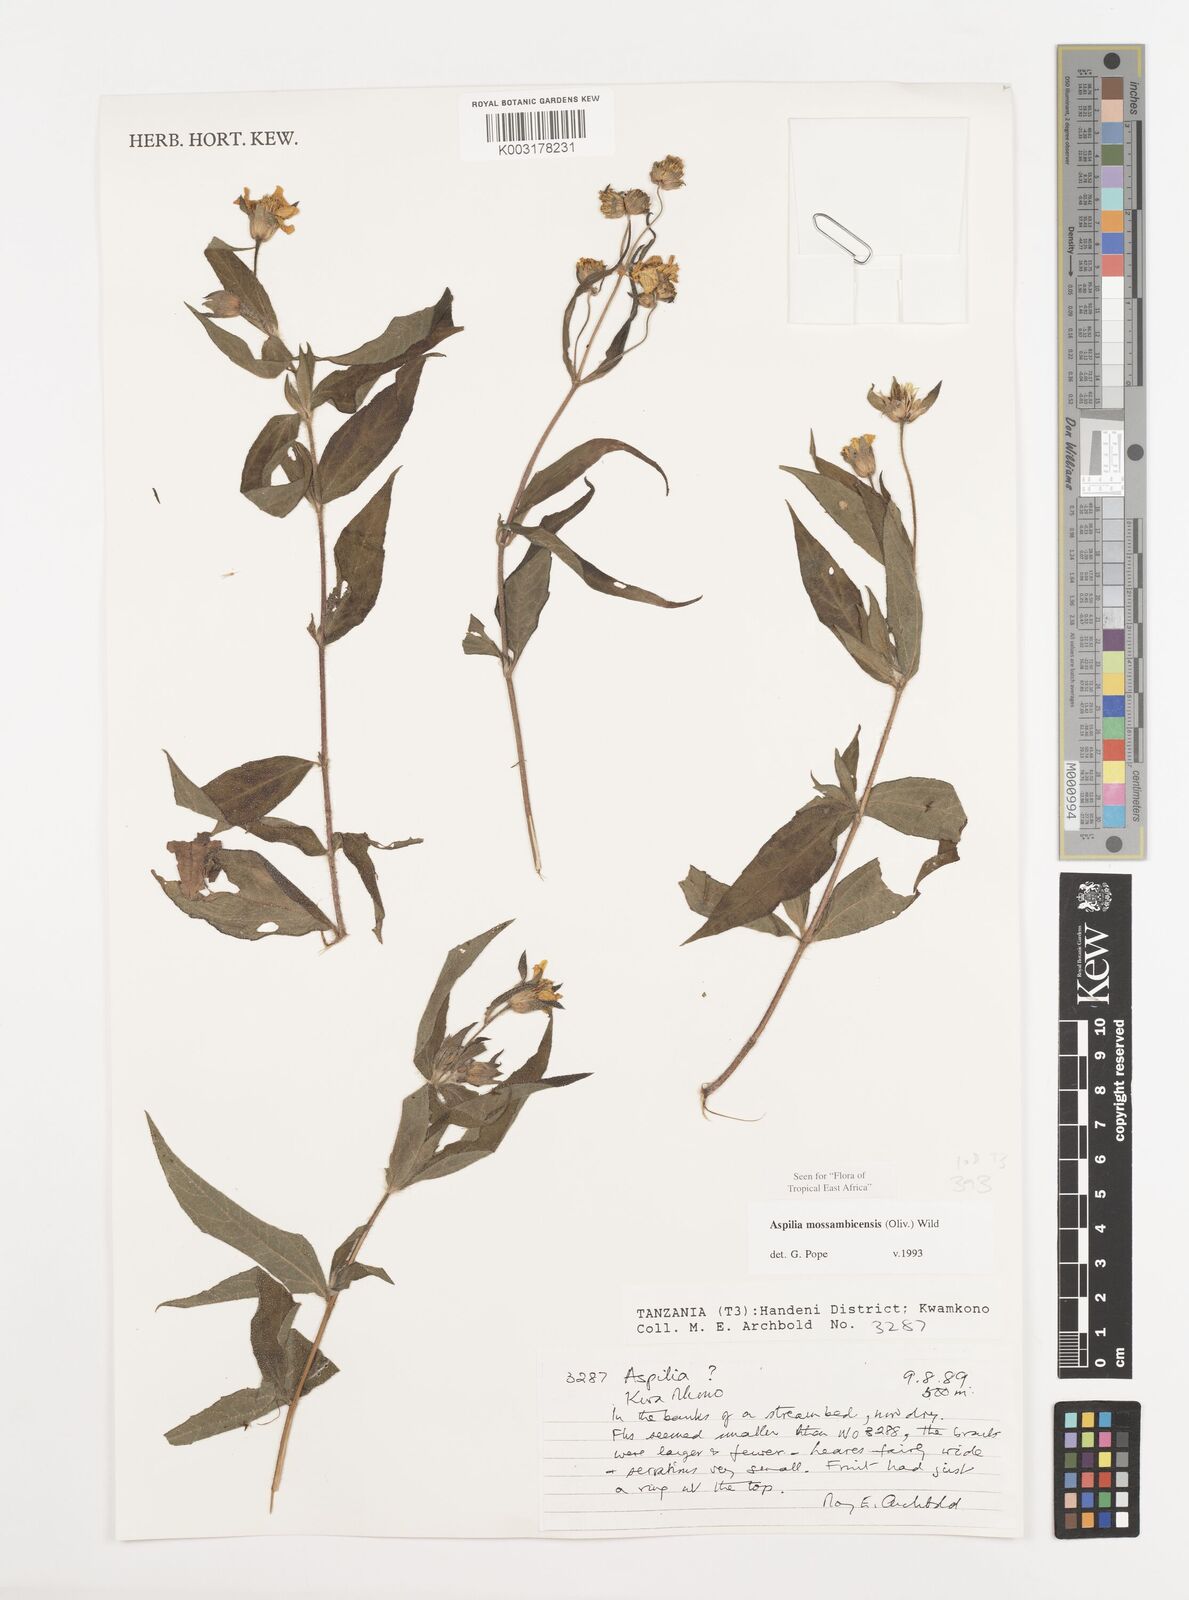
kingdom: Plantae
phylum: Tracheophyta
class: Magnoliopsida
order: Asterales
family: Asteraceae
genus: Aspilia
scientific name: Aspilia mossambicensis
